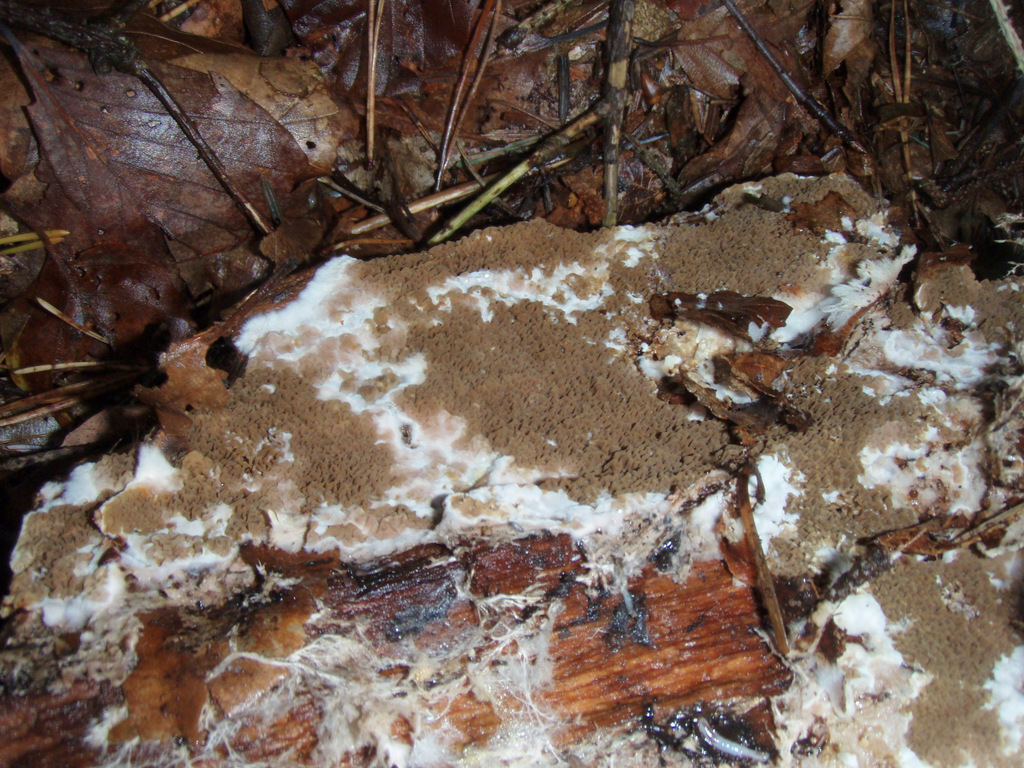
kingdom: Fungi
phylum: Basidiomycota
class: Agaricomycetes
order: Boletales
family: Serpulaceae
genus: Serpula
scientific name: Serpula himantioides
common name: tyndkødet hussvamp
